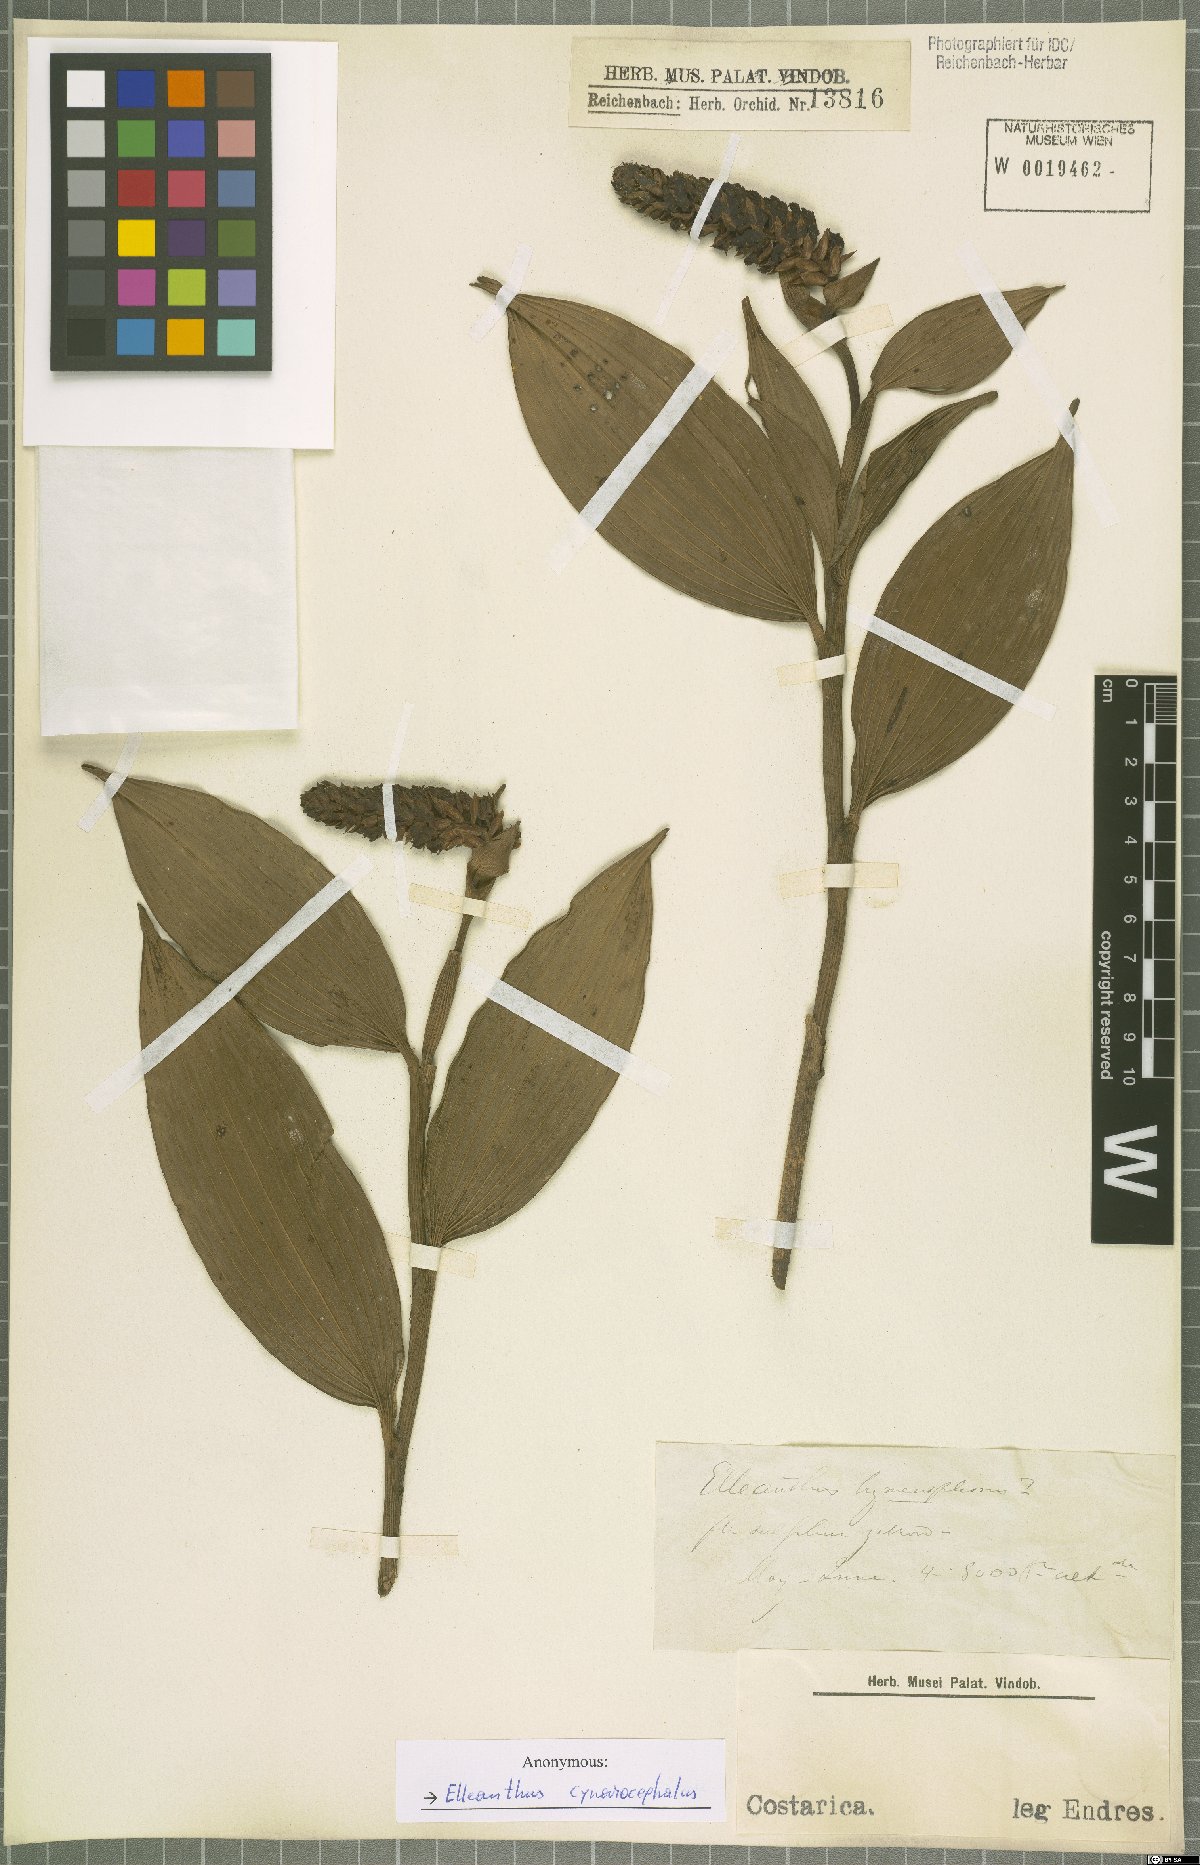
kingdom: Plantae
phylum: Tracheophyta
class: Liliopsida
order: Asparagales
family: Orchidaceae
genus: Elleanthus
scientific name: Elleanthus capitatus
